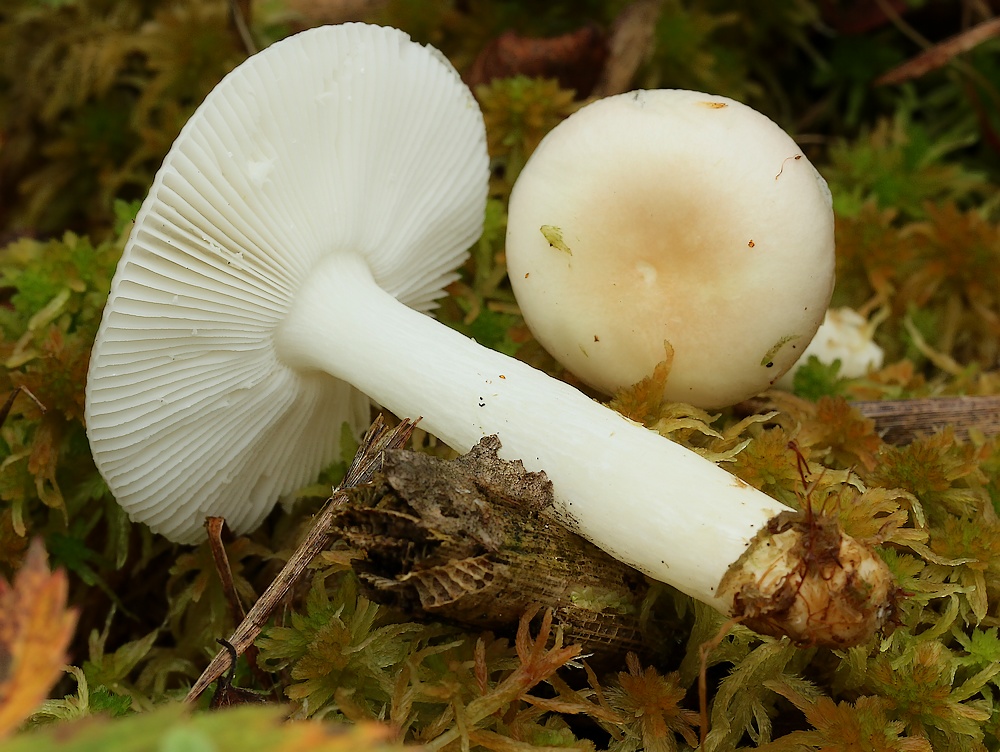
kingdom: Fungi
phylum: Basidiomycota
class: Agaricomycetes
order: Russulales
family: Russulaceae
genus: Russula
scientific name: Russula betularum
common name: bleg gift-skørhat
